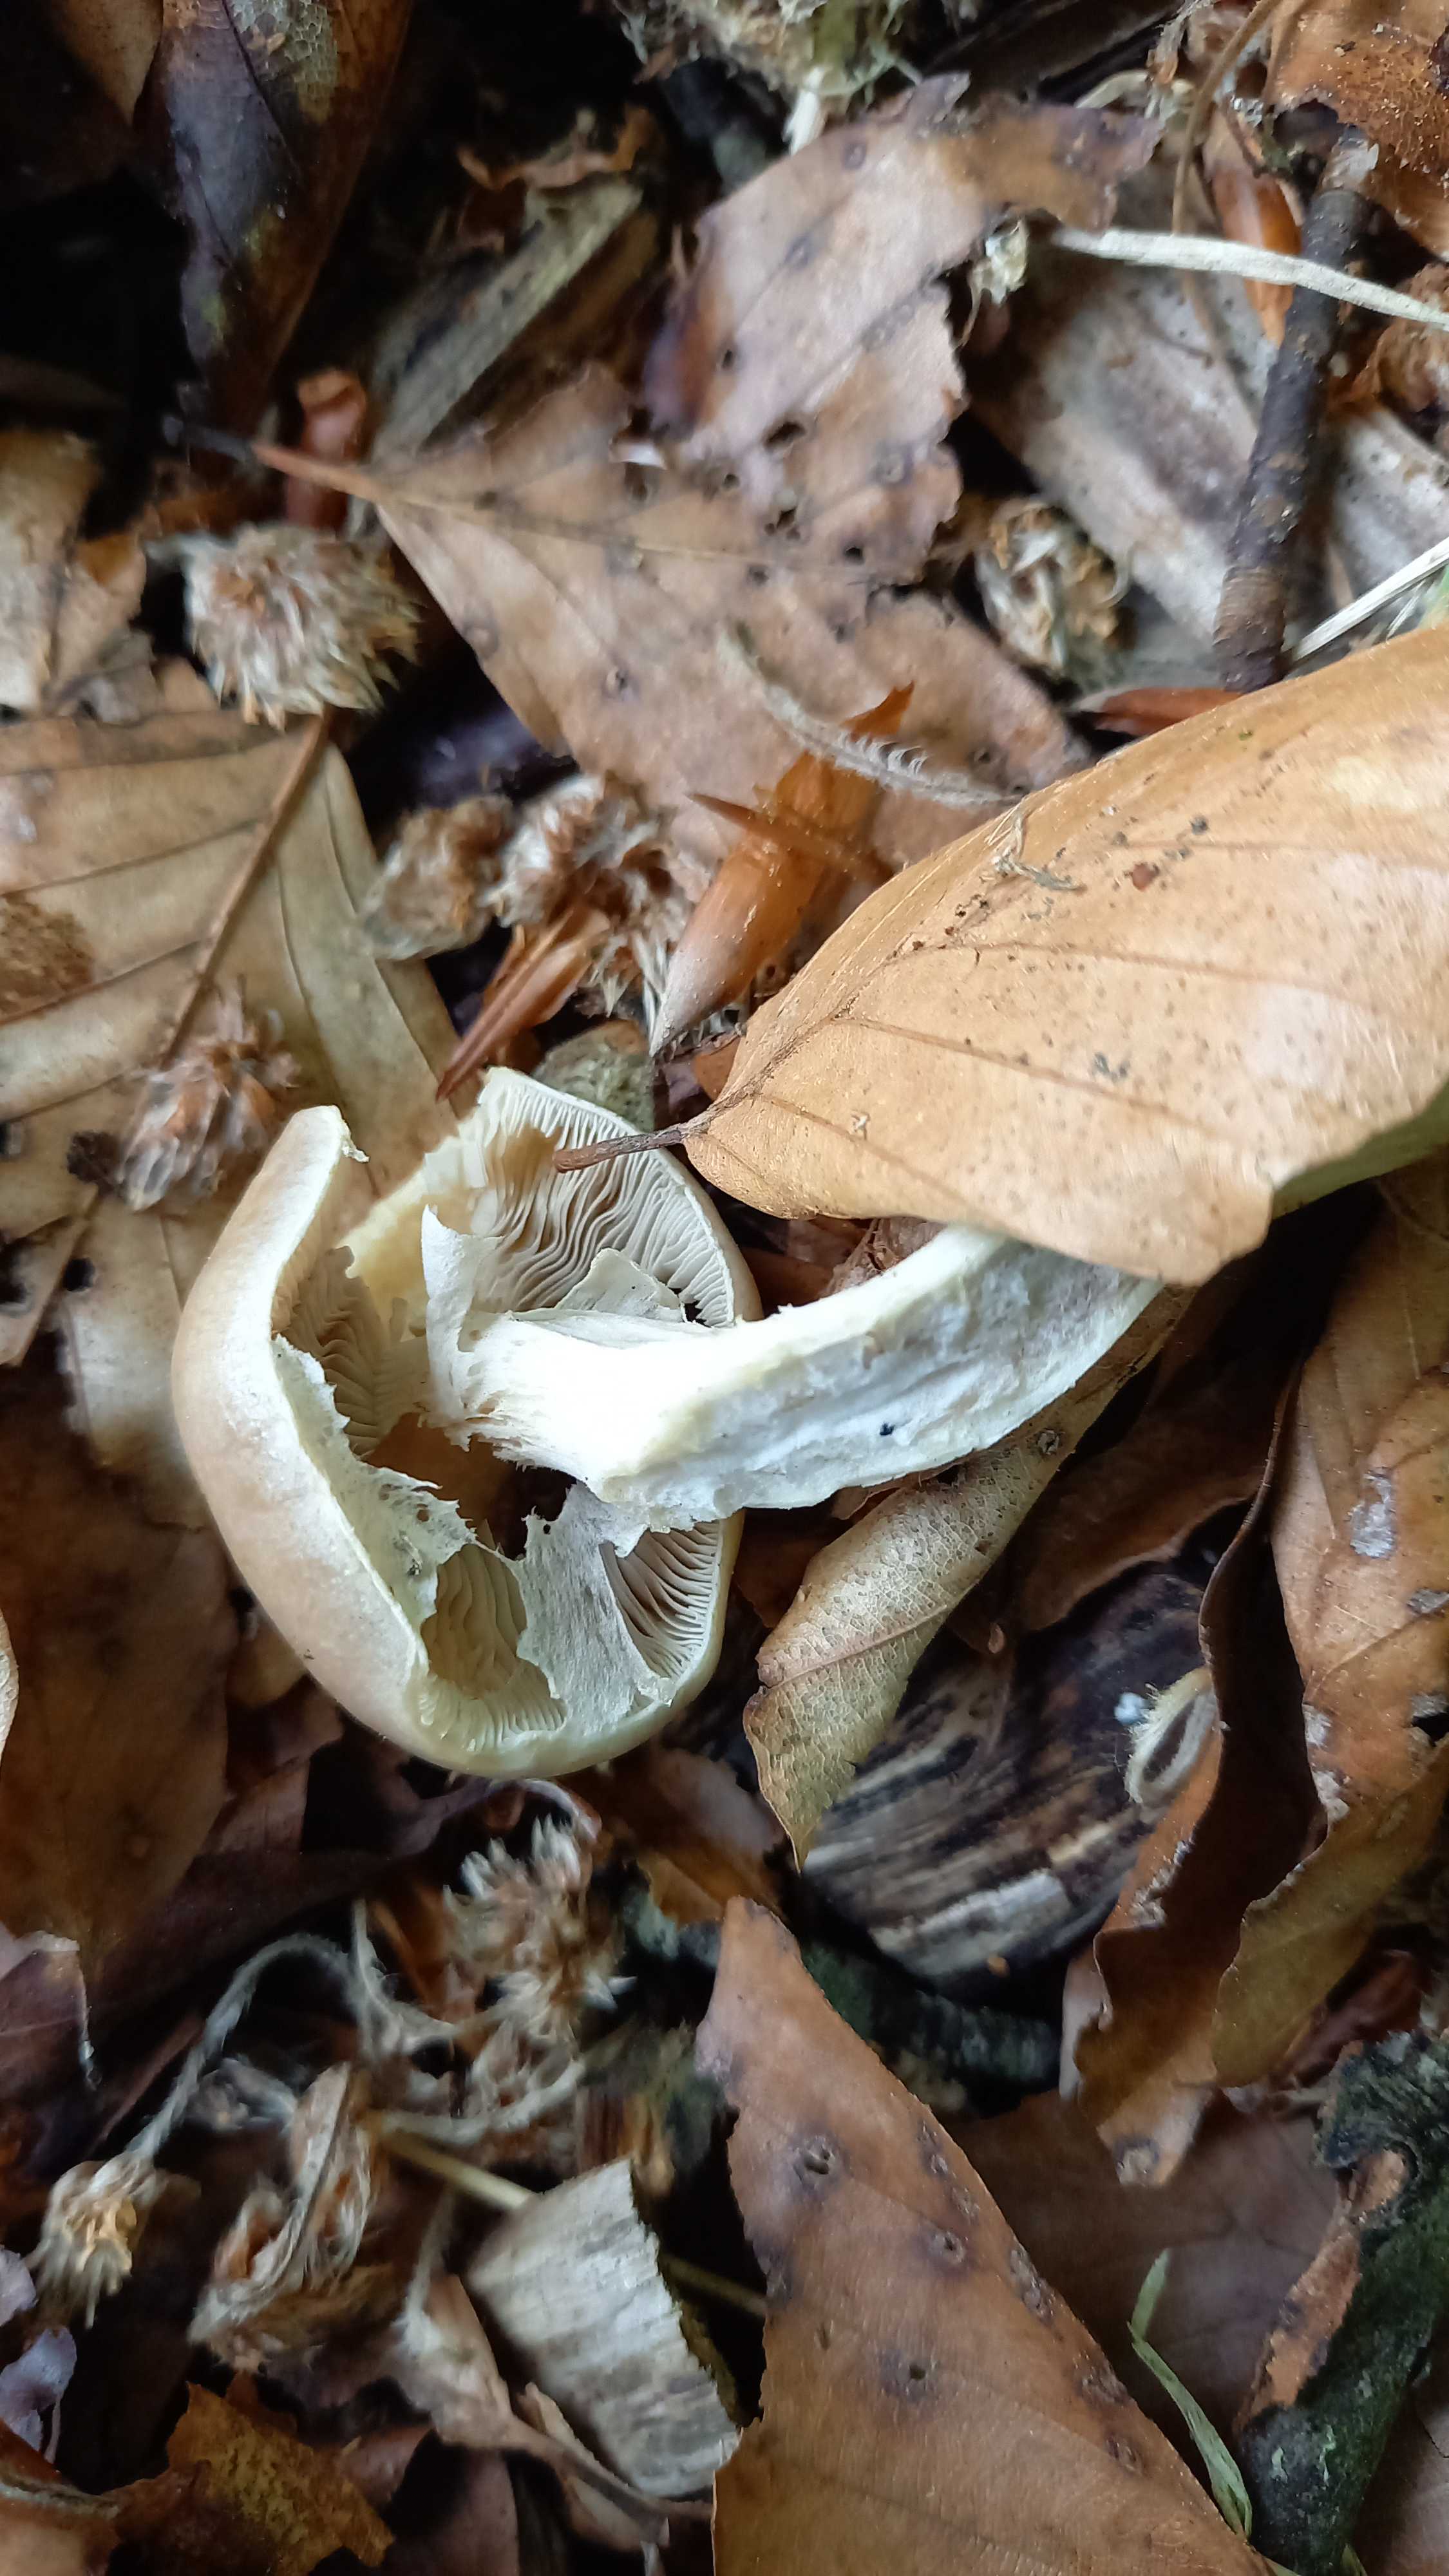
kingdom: Fungi
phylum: Basidiomycota
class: Agaricomycetes
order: Agaricales
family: Strophariaceae
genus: Agrocybe
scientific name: Agrocybe praecox
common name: tidlig agerhat
